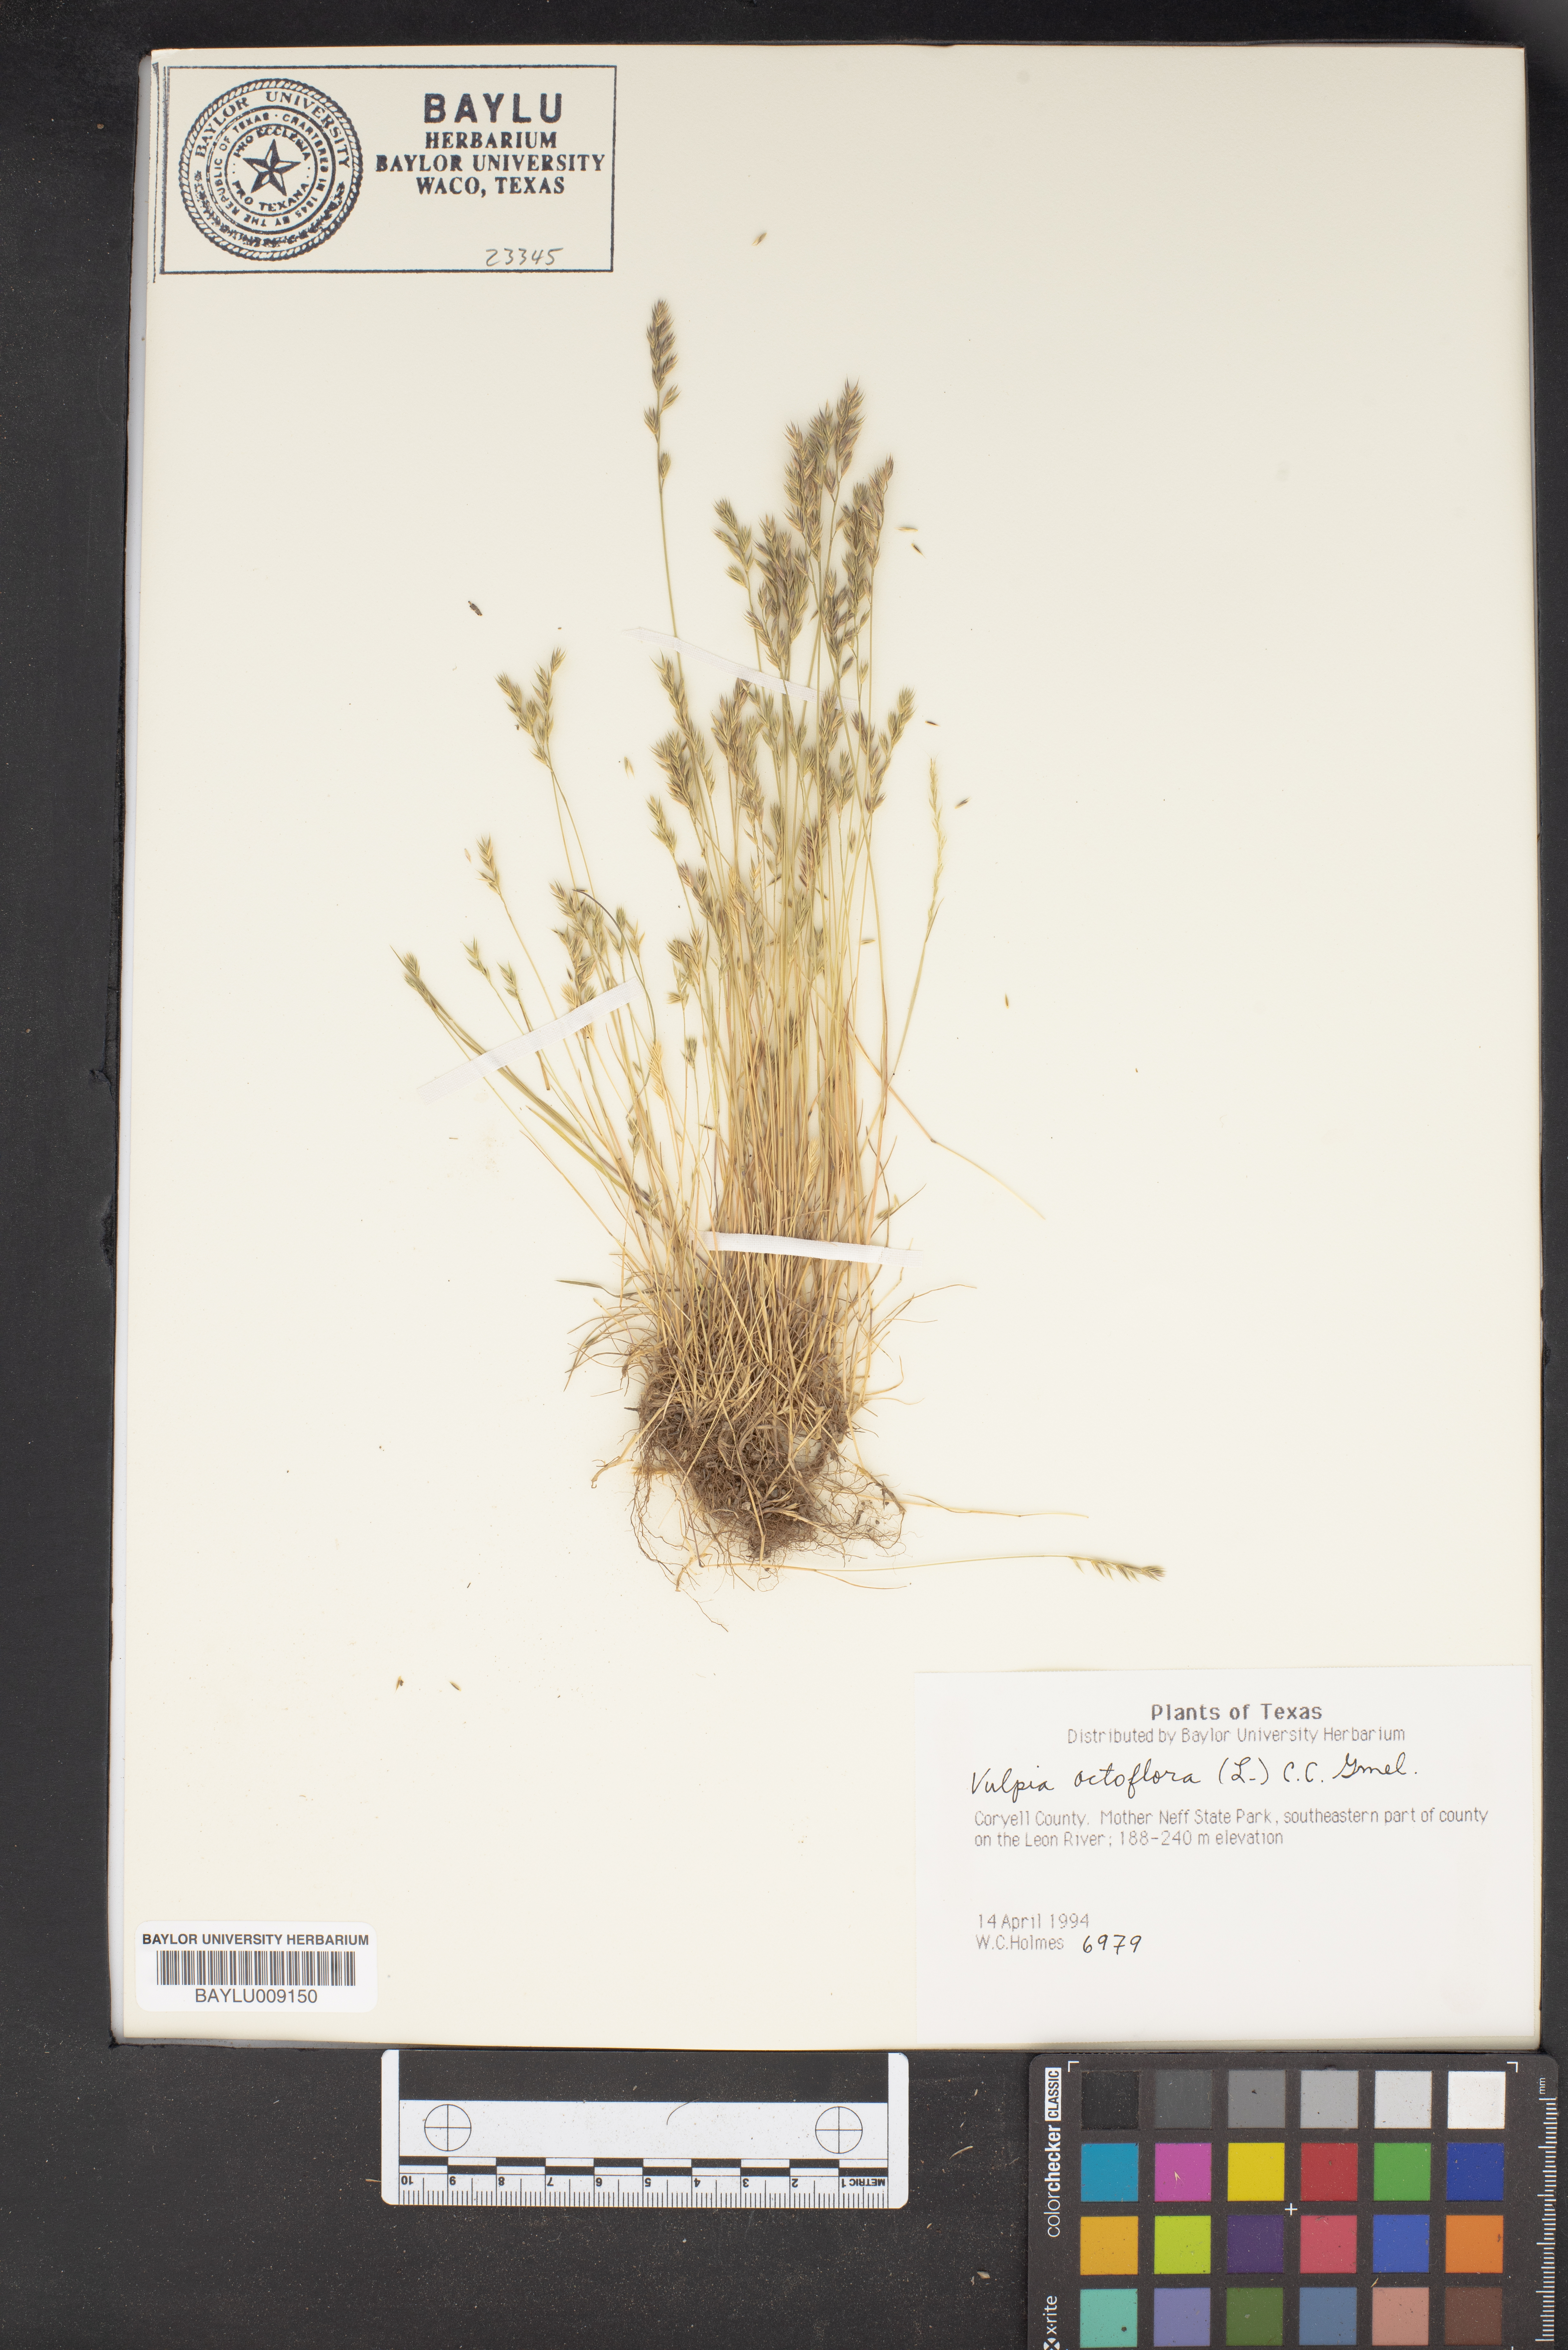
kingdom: Plantae
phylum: Tracheophyta
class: Liliopsida
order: Poales
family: Poaceae
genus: Festuca
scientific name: Festuca octoflora
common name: Sixweeks grass
